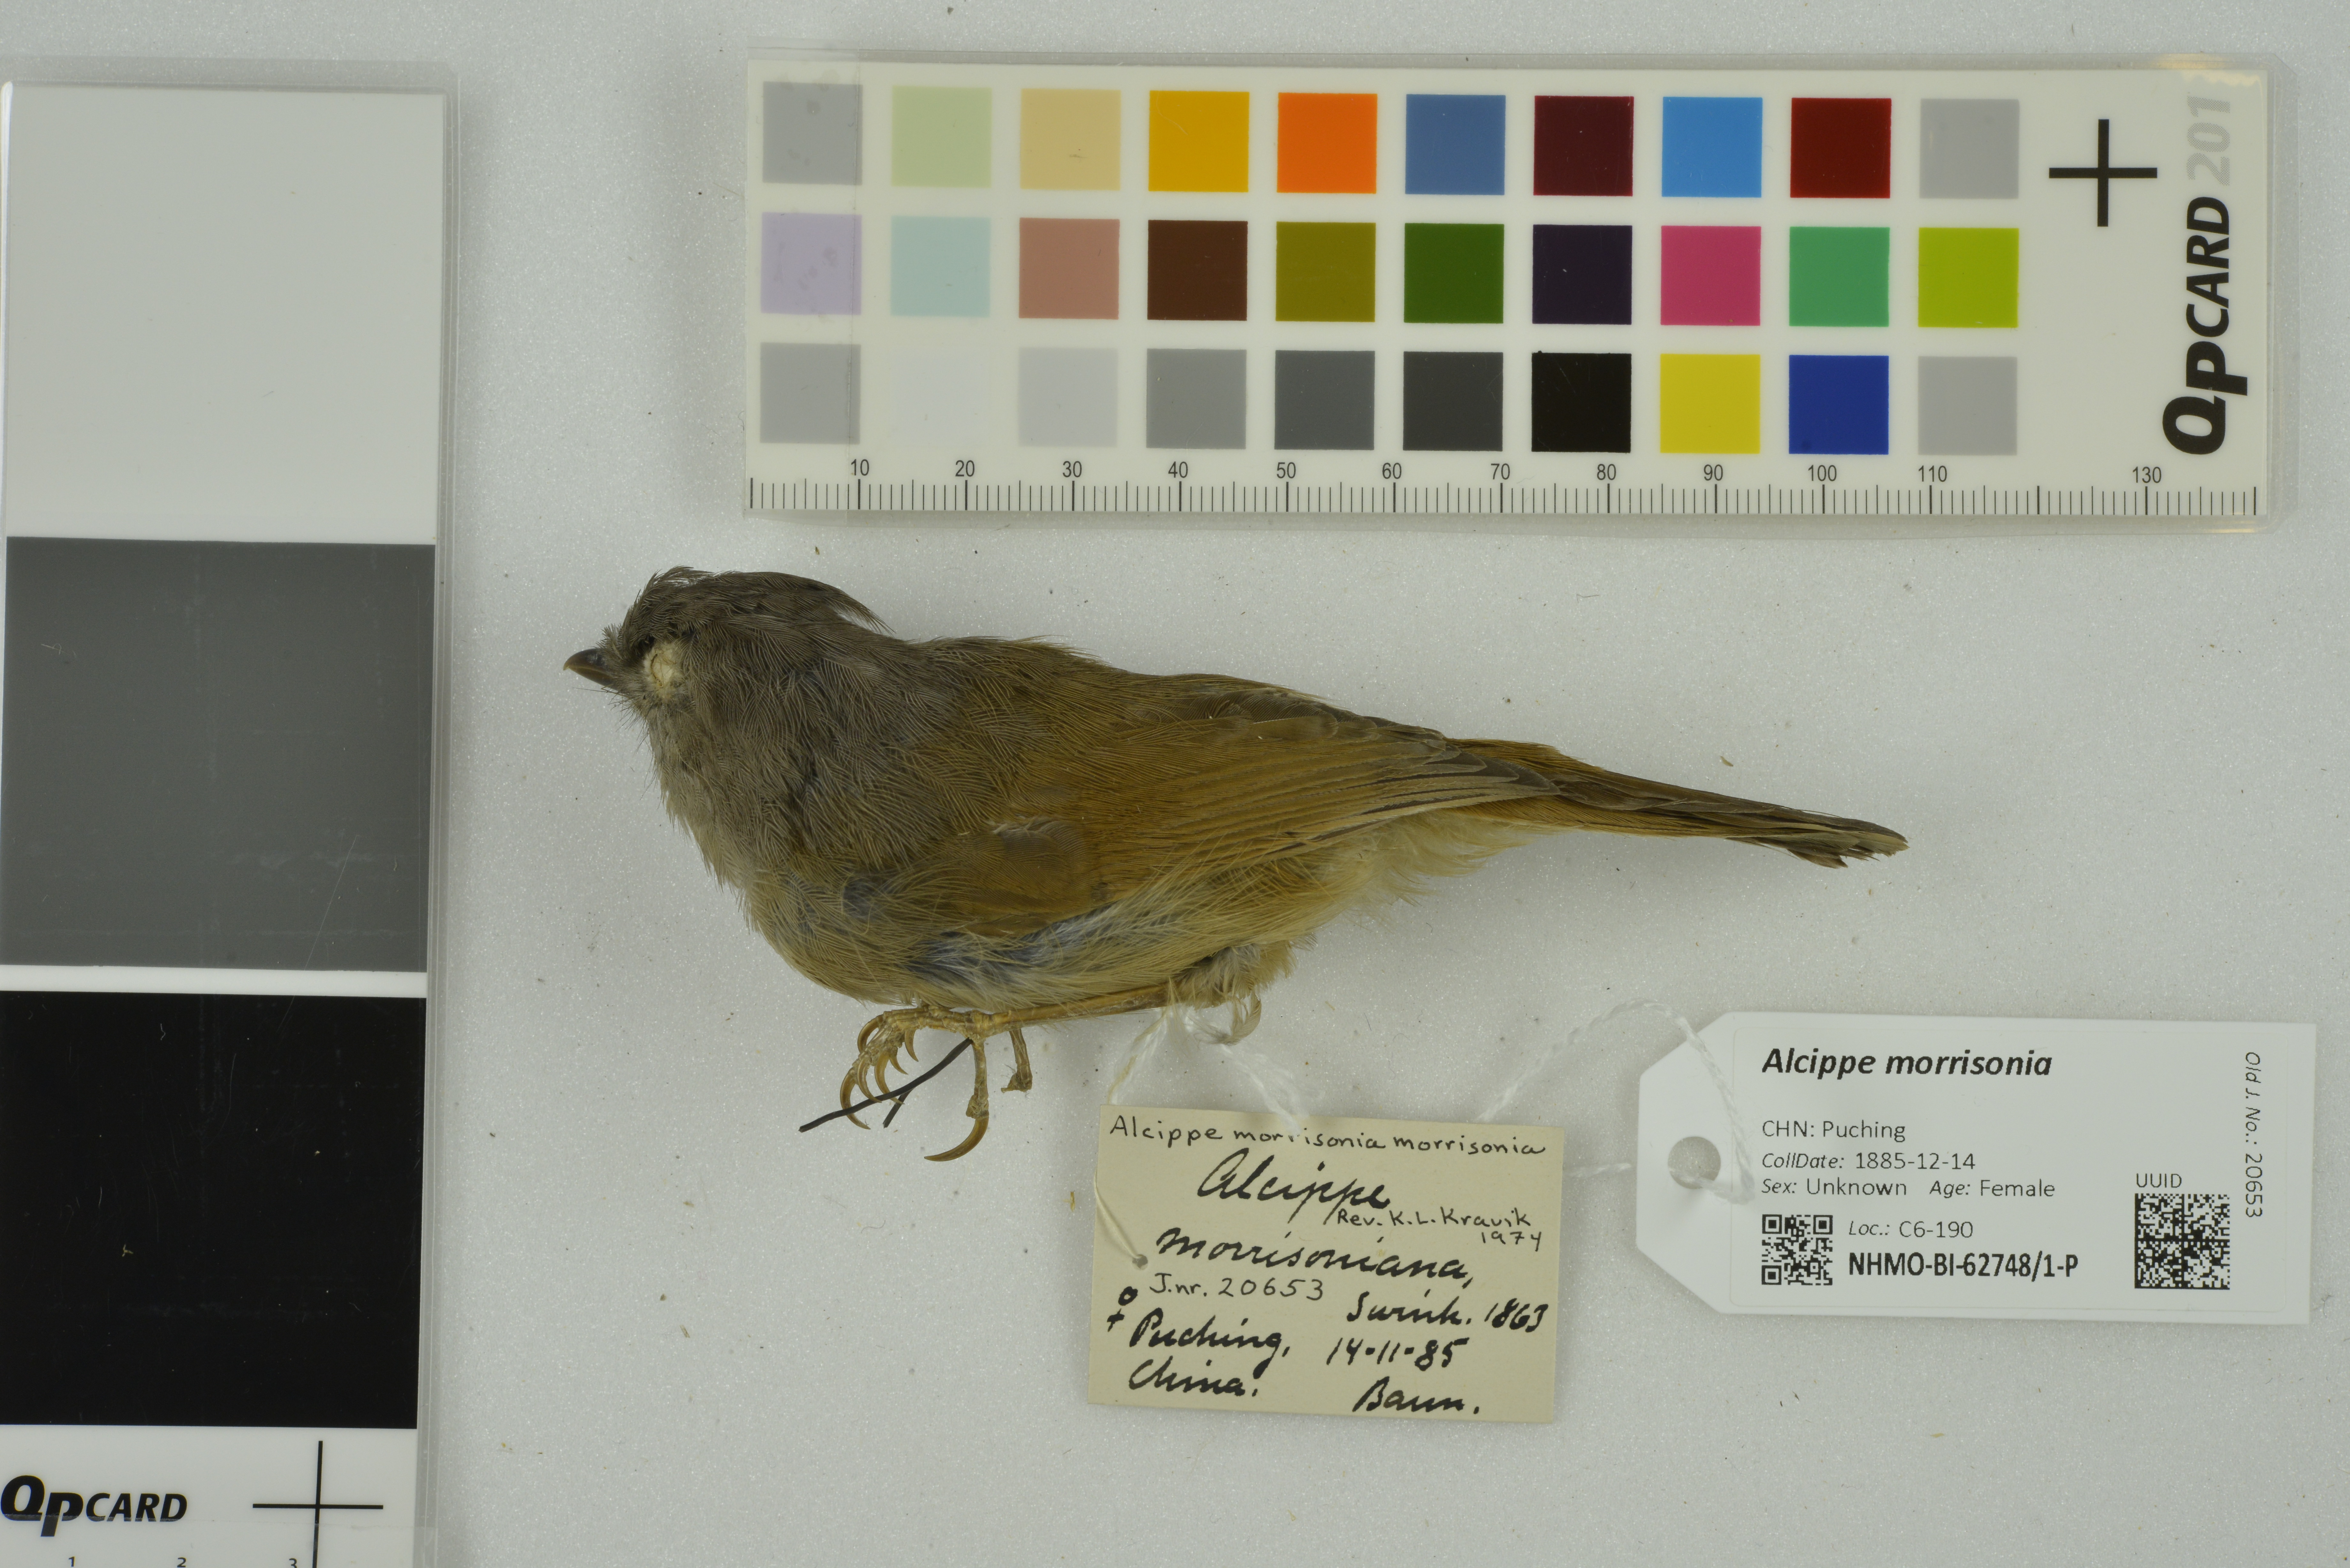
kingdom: Animalia
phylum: Chordata
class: Aves
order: Passeriformes
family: Pellorneidae
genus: Alcippe
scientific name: Alcippe morrisonia
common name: Grey-cheeked fulvetta
